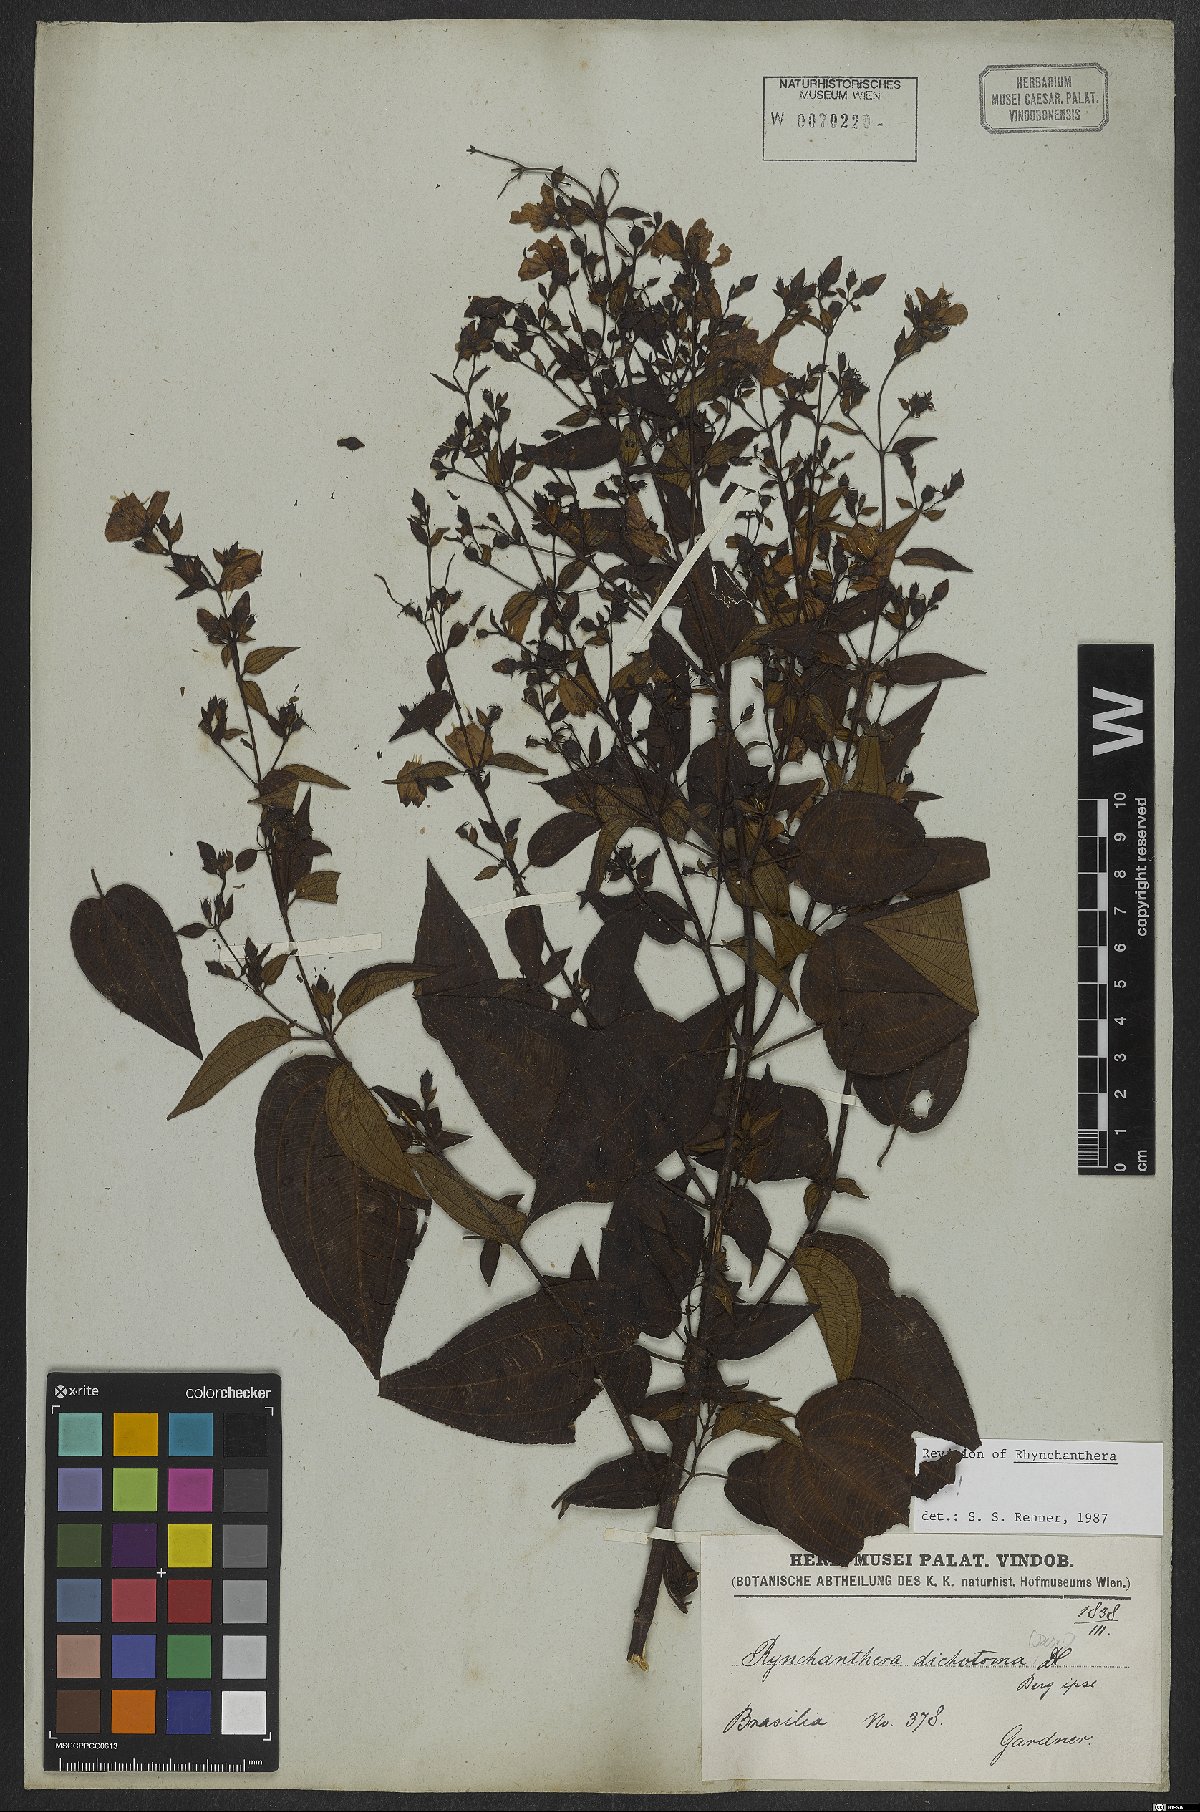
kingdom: Plantae
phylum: Tracheophyta
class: Magnoliopsida
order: Myrtales
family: Melastomataceae
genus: Rhynchanthera
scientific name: Rhynchanthera dichotoma
